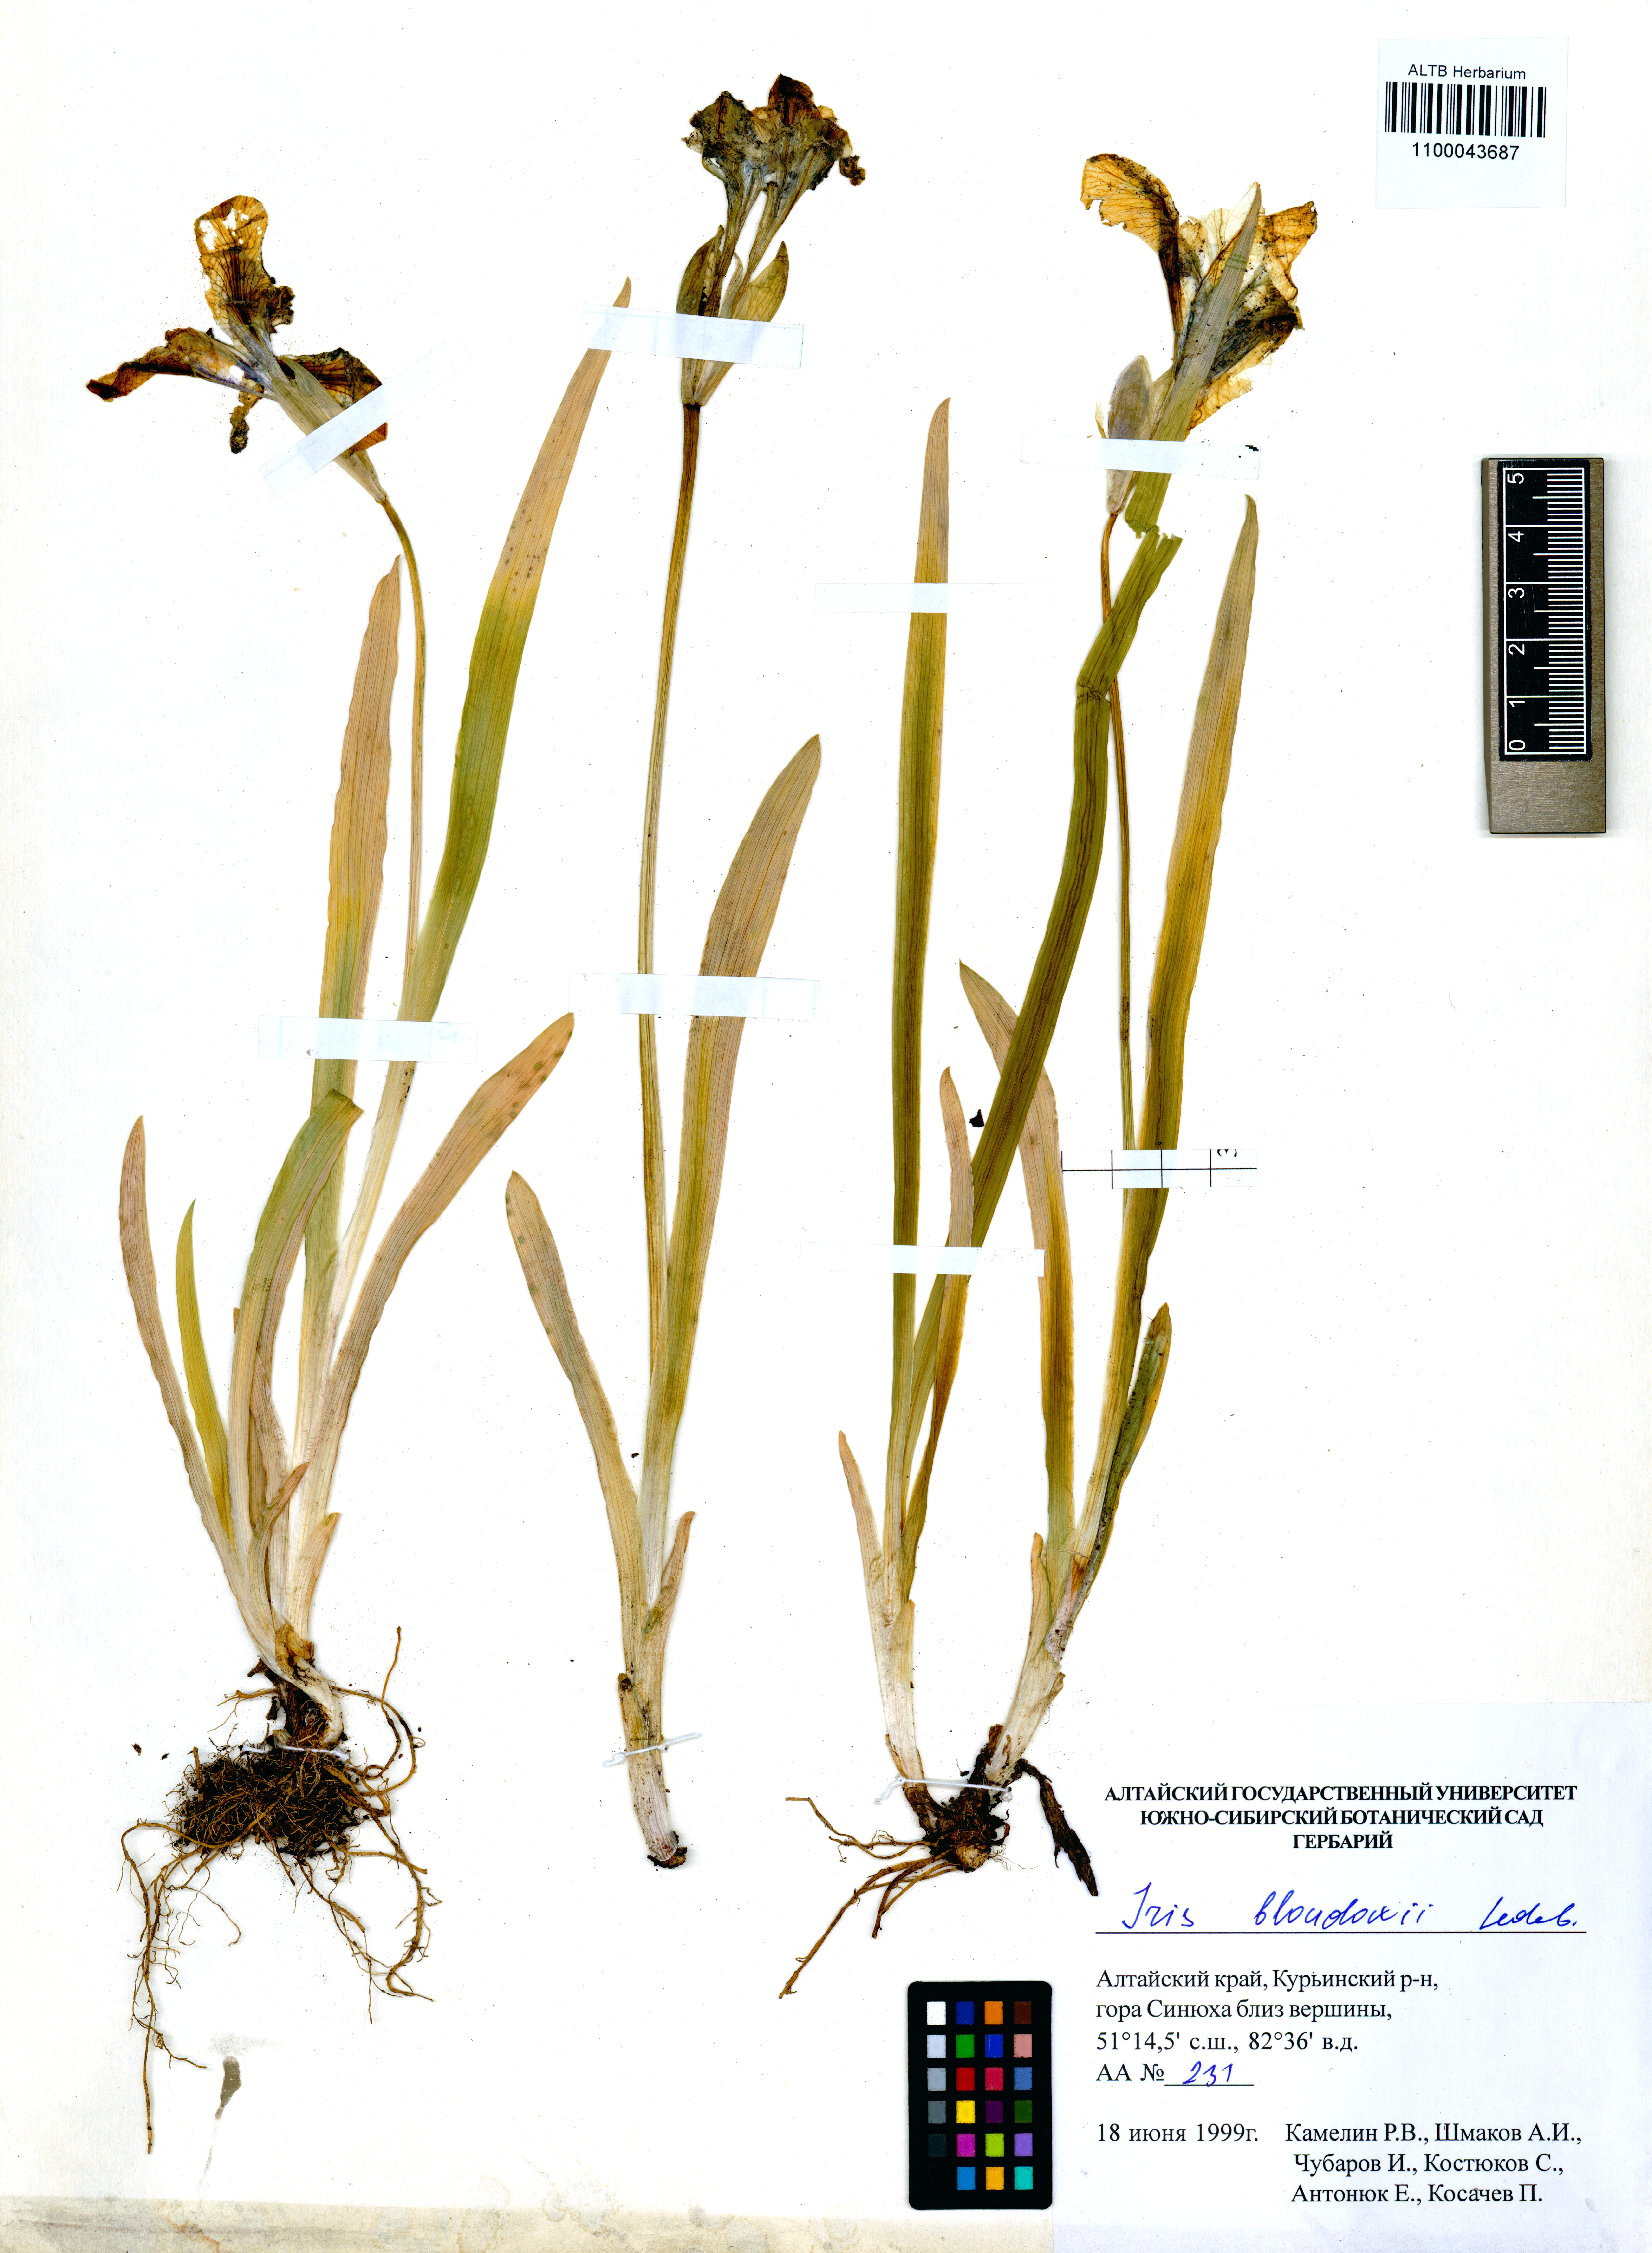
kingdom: Plantae
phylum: Tracheophyta
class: Liliopsida
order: Asparagales
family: Iridaceae
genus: Iris
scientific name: Iris bloudowii
